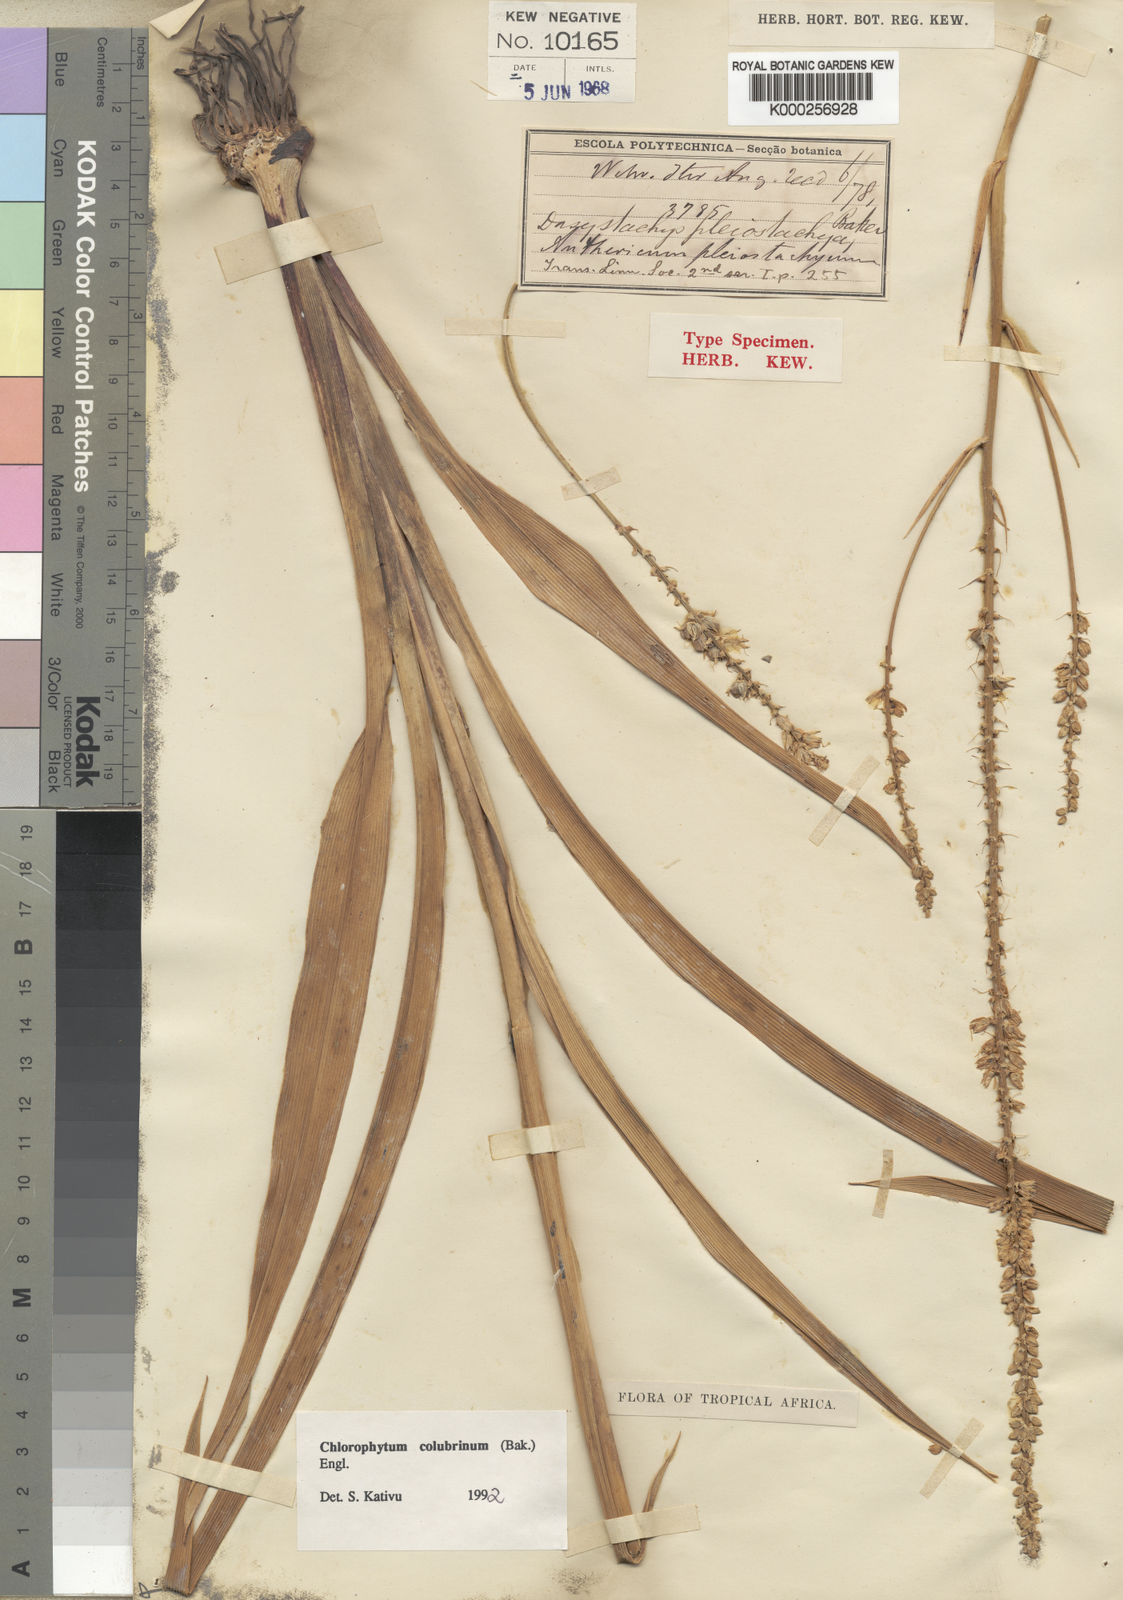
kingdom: Plantae
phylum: Tracheophyta
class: Liliopsida
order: Asparagales
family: Asparagaceae
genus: Chlorophytum
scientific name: Chlorophytum colubrinum
